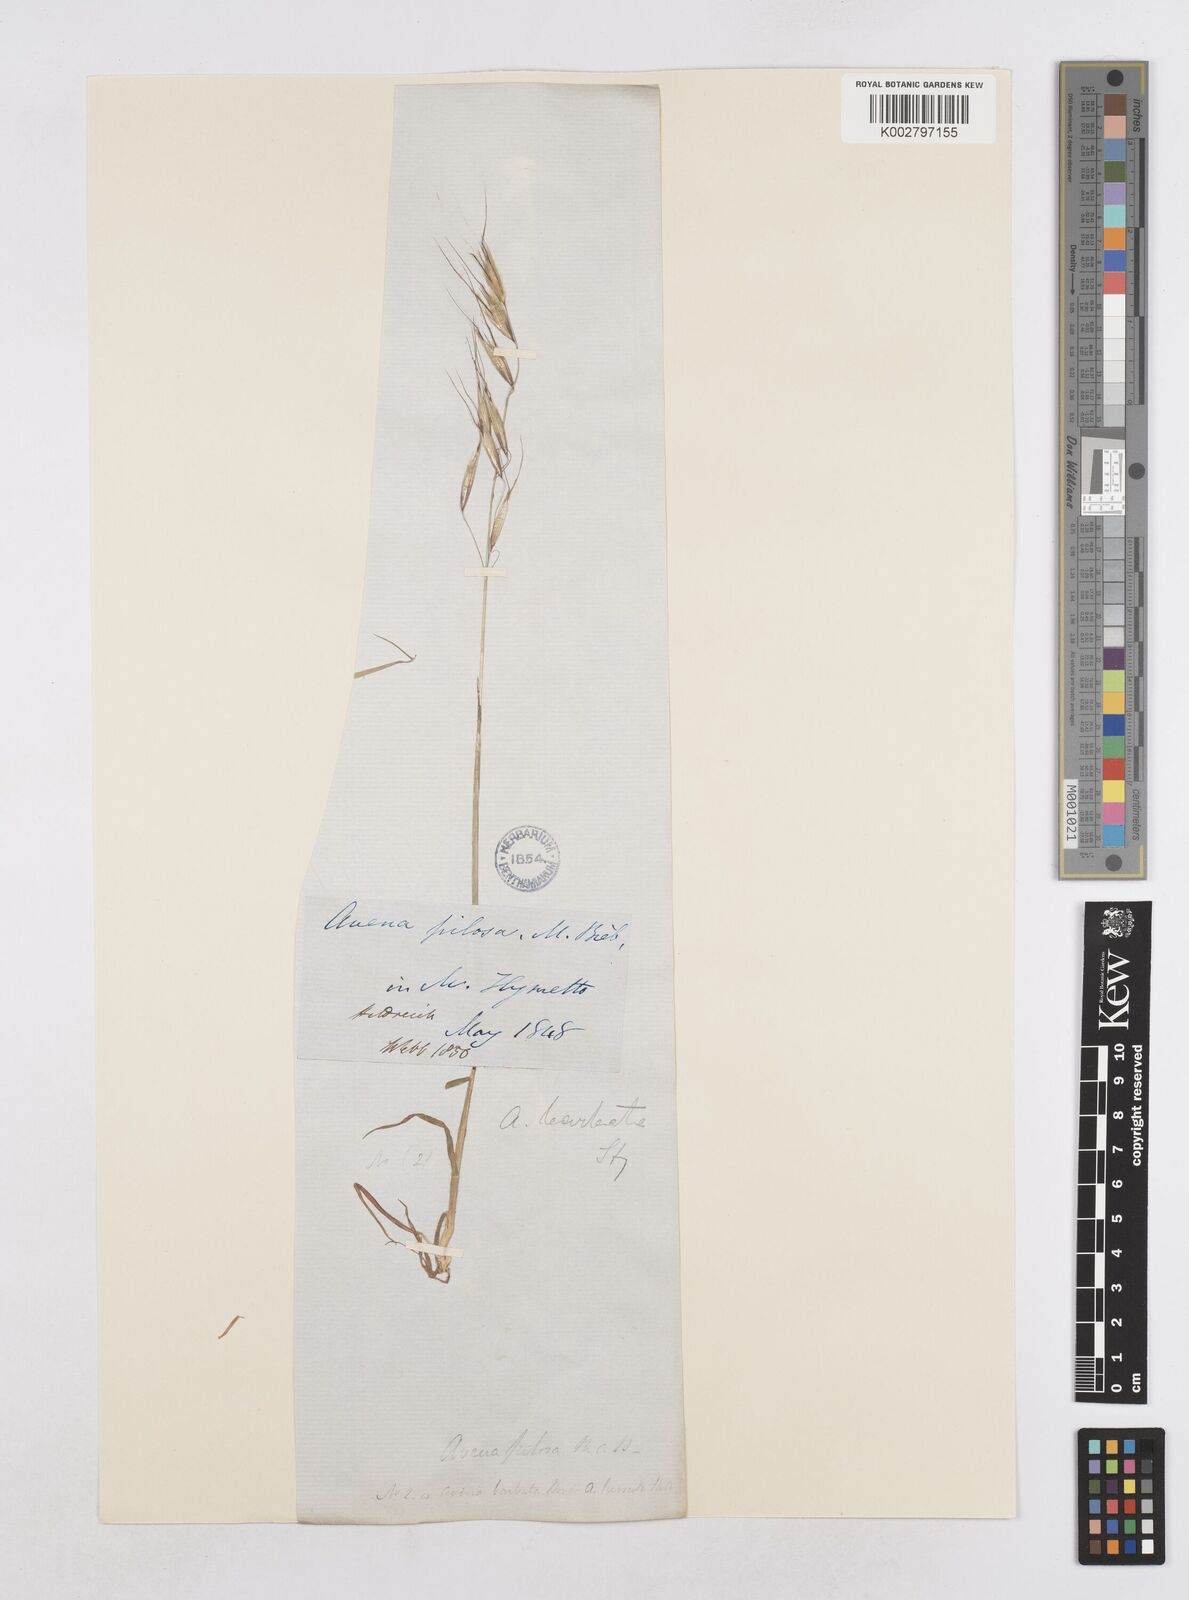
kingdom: Plantae
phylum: Tracheophyta
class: Liliopsida
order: Poales
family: Poaceae
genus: Avena
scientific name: Avena
